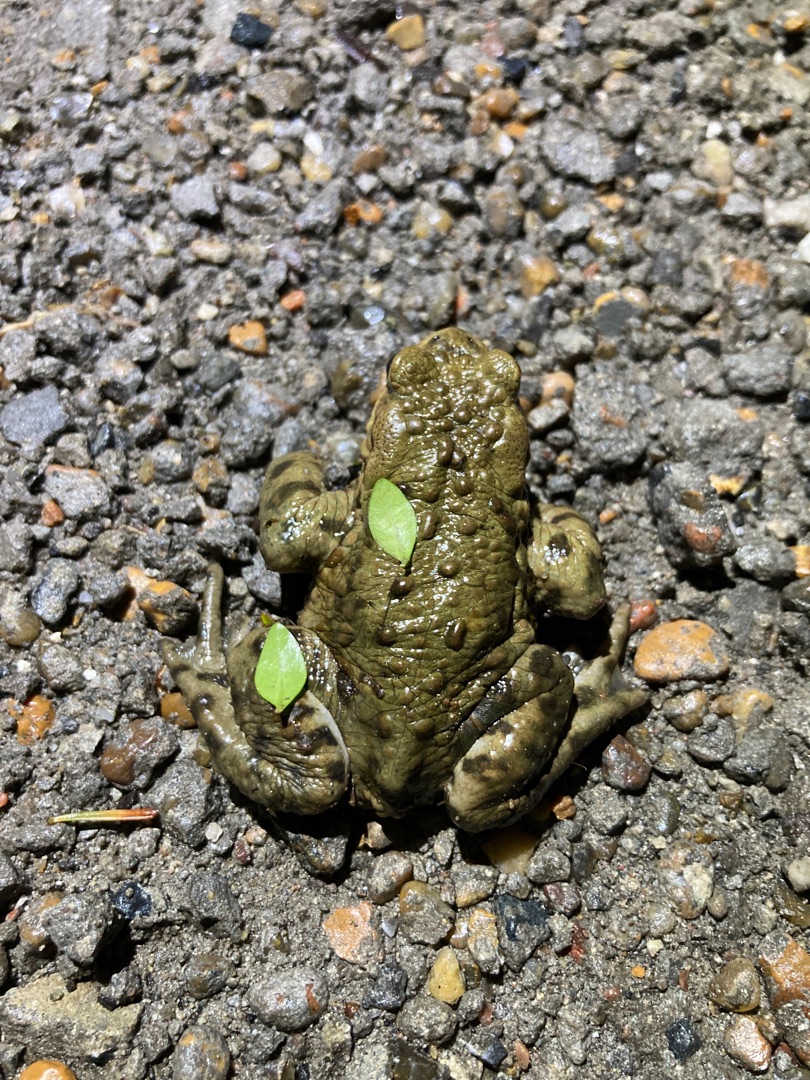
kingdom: Animalia
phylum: Chordata
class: Amphibia
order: Anura
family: Bufonidae
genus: Bufo
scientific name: Bufo bufo
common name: Skrubtudse
